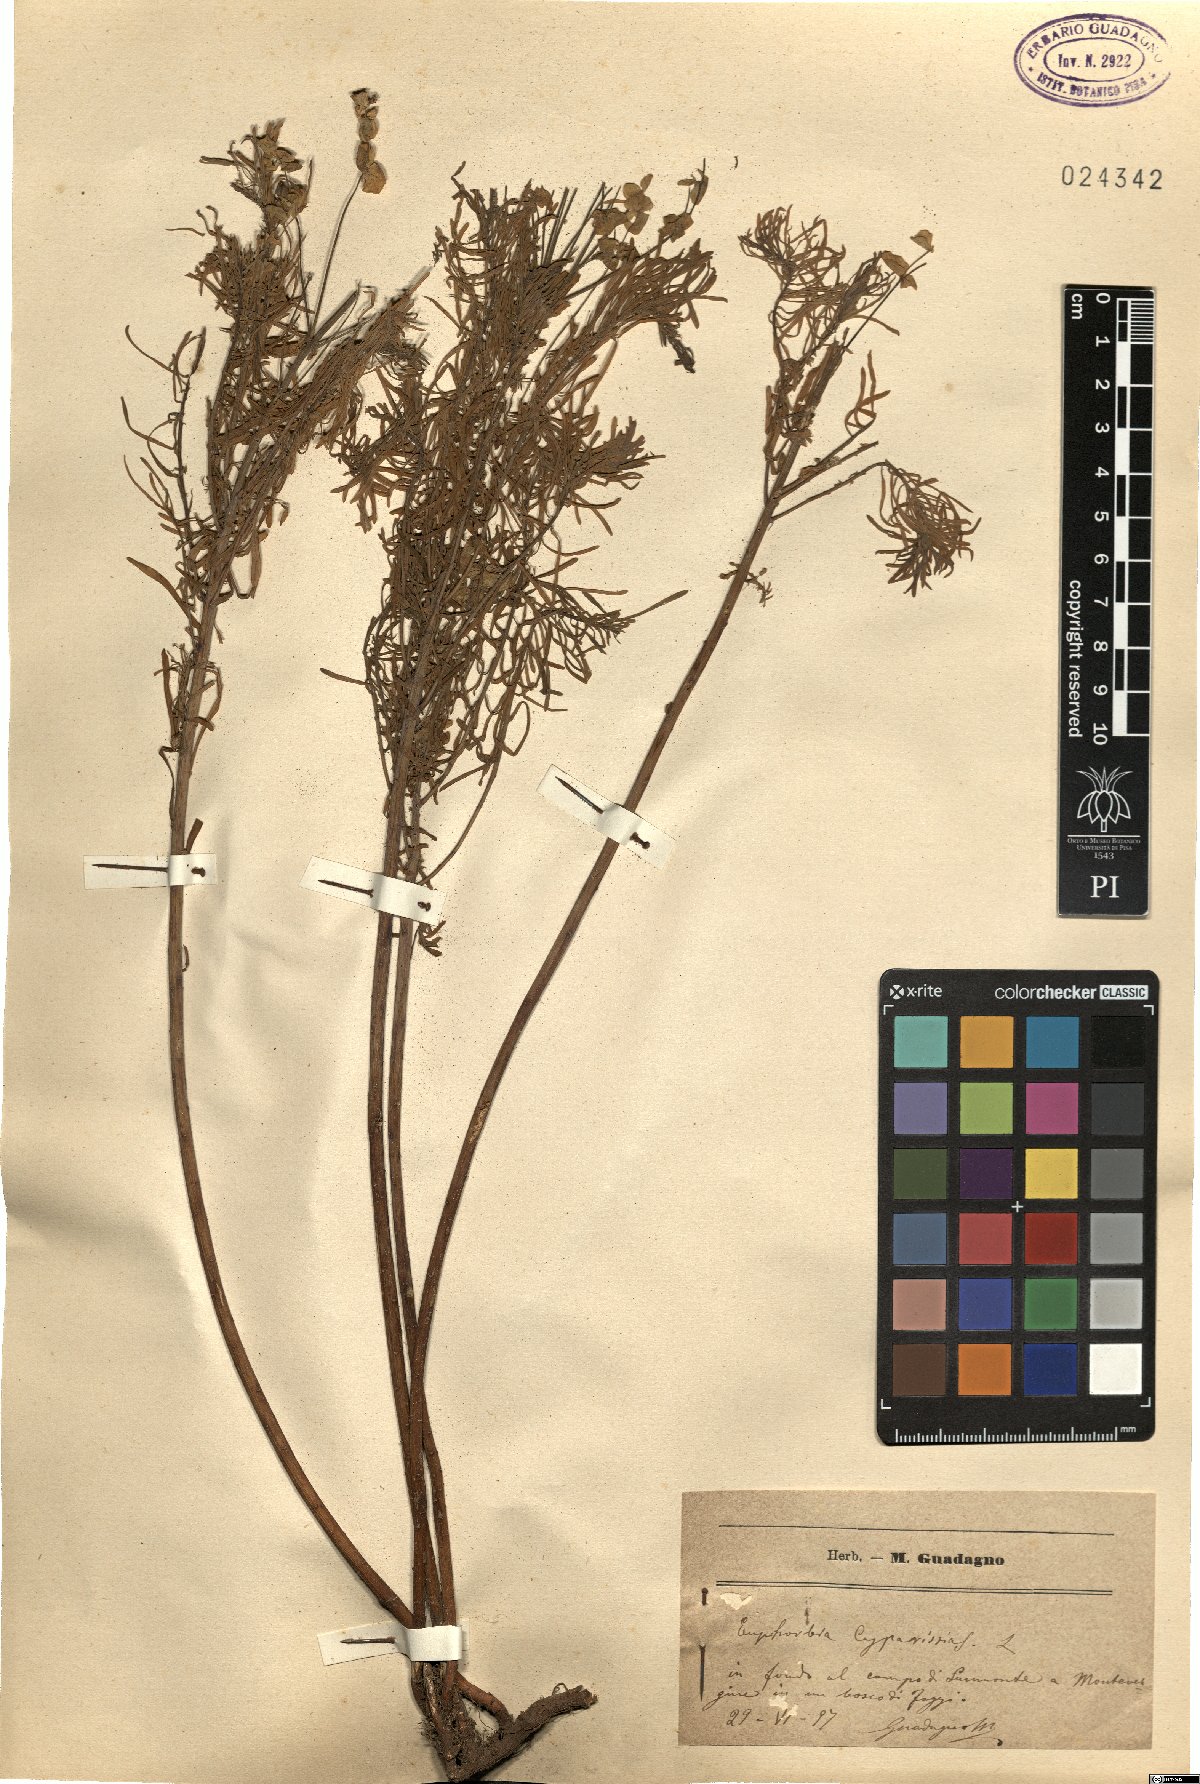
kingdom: Plantae
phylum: Tracheophyta
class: Magnoliopsida
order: Malpighiales
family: Euphorbiaceae
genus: Euphorbia
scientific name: Euphorbia cyparissias
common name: Cypress spurge
